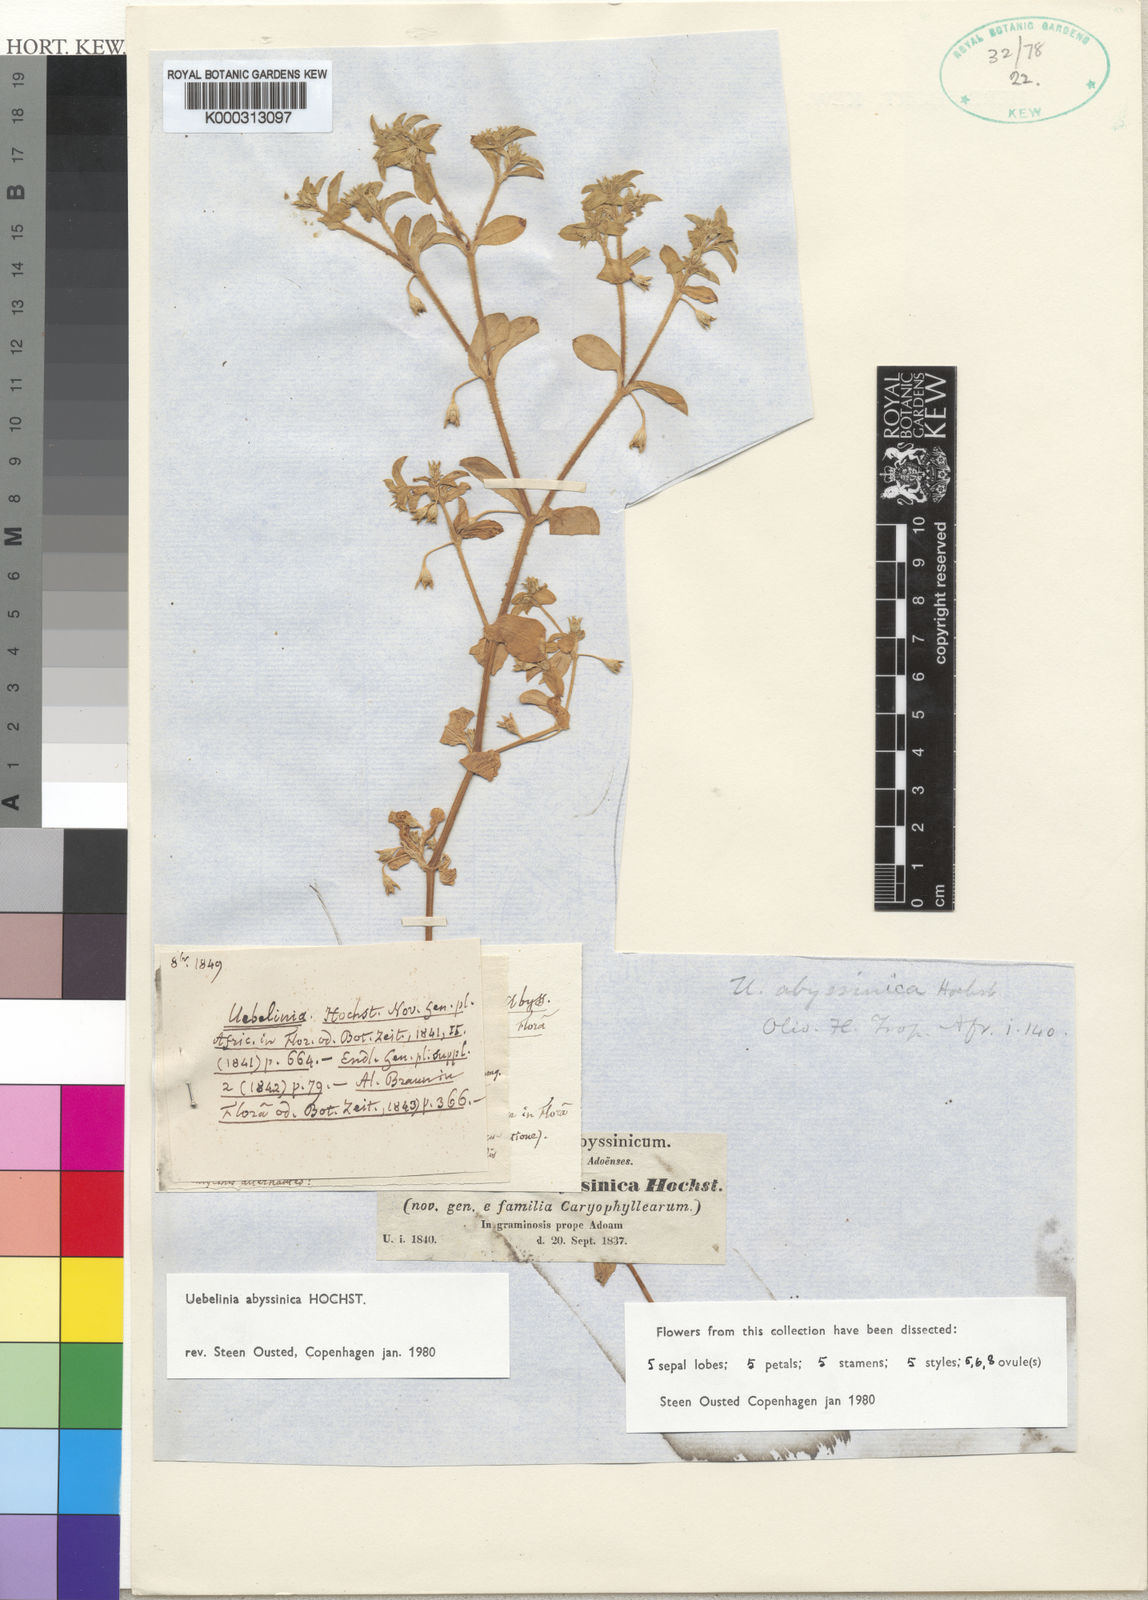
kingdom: Plantae
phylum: Tracheophyta
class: Magnoliopsida
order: Caryophyllales
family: Caryophyllaceae
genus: Silene
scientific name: Silene abyssinica
